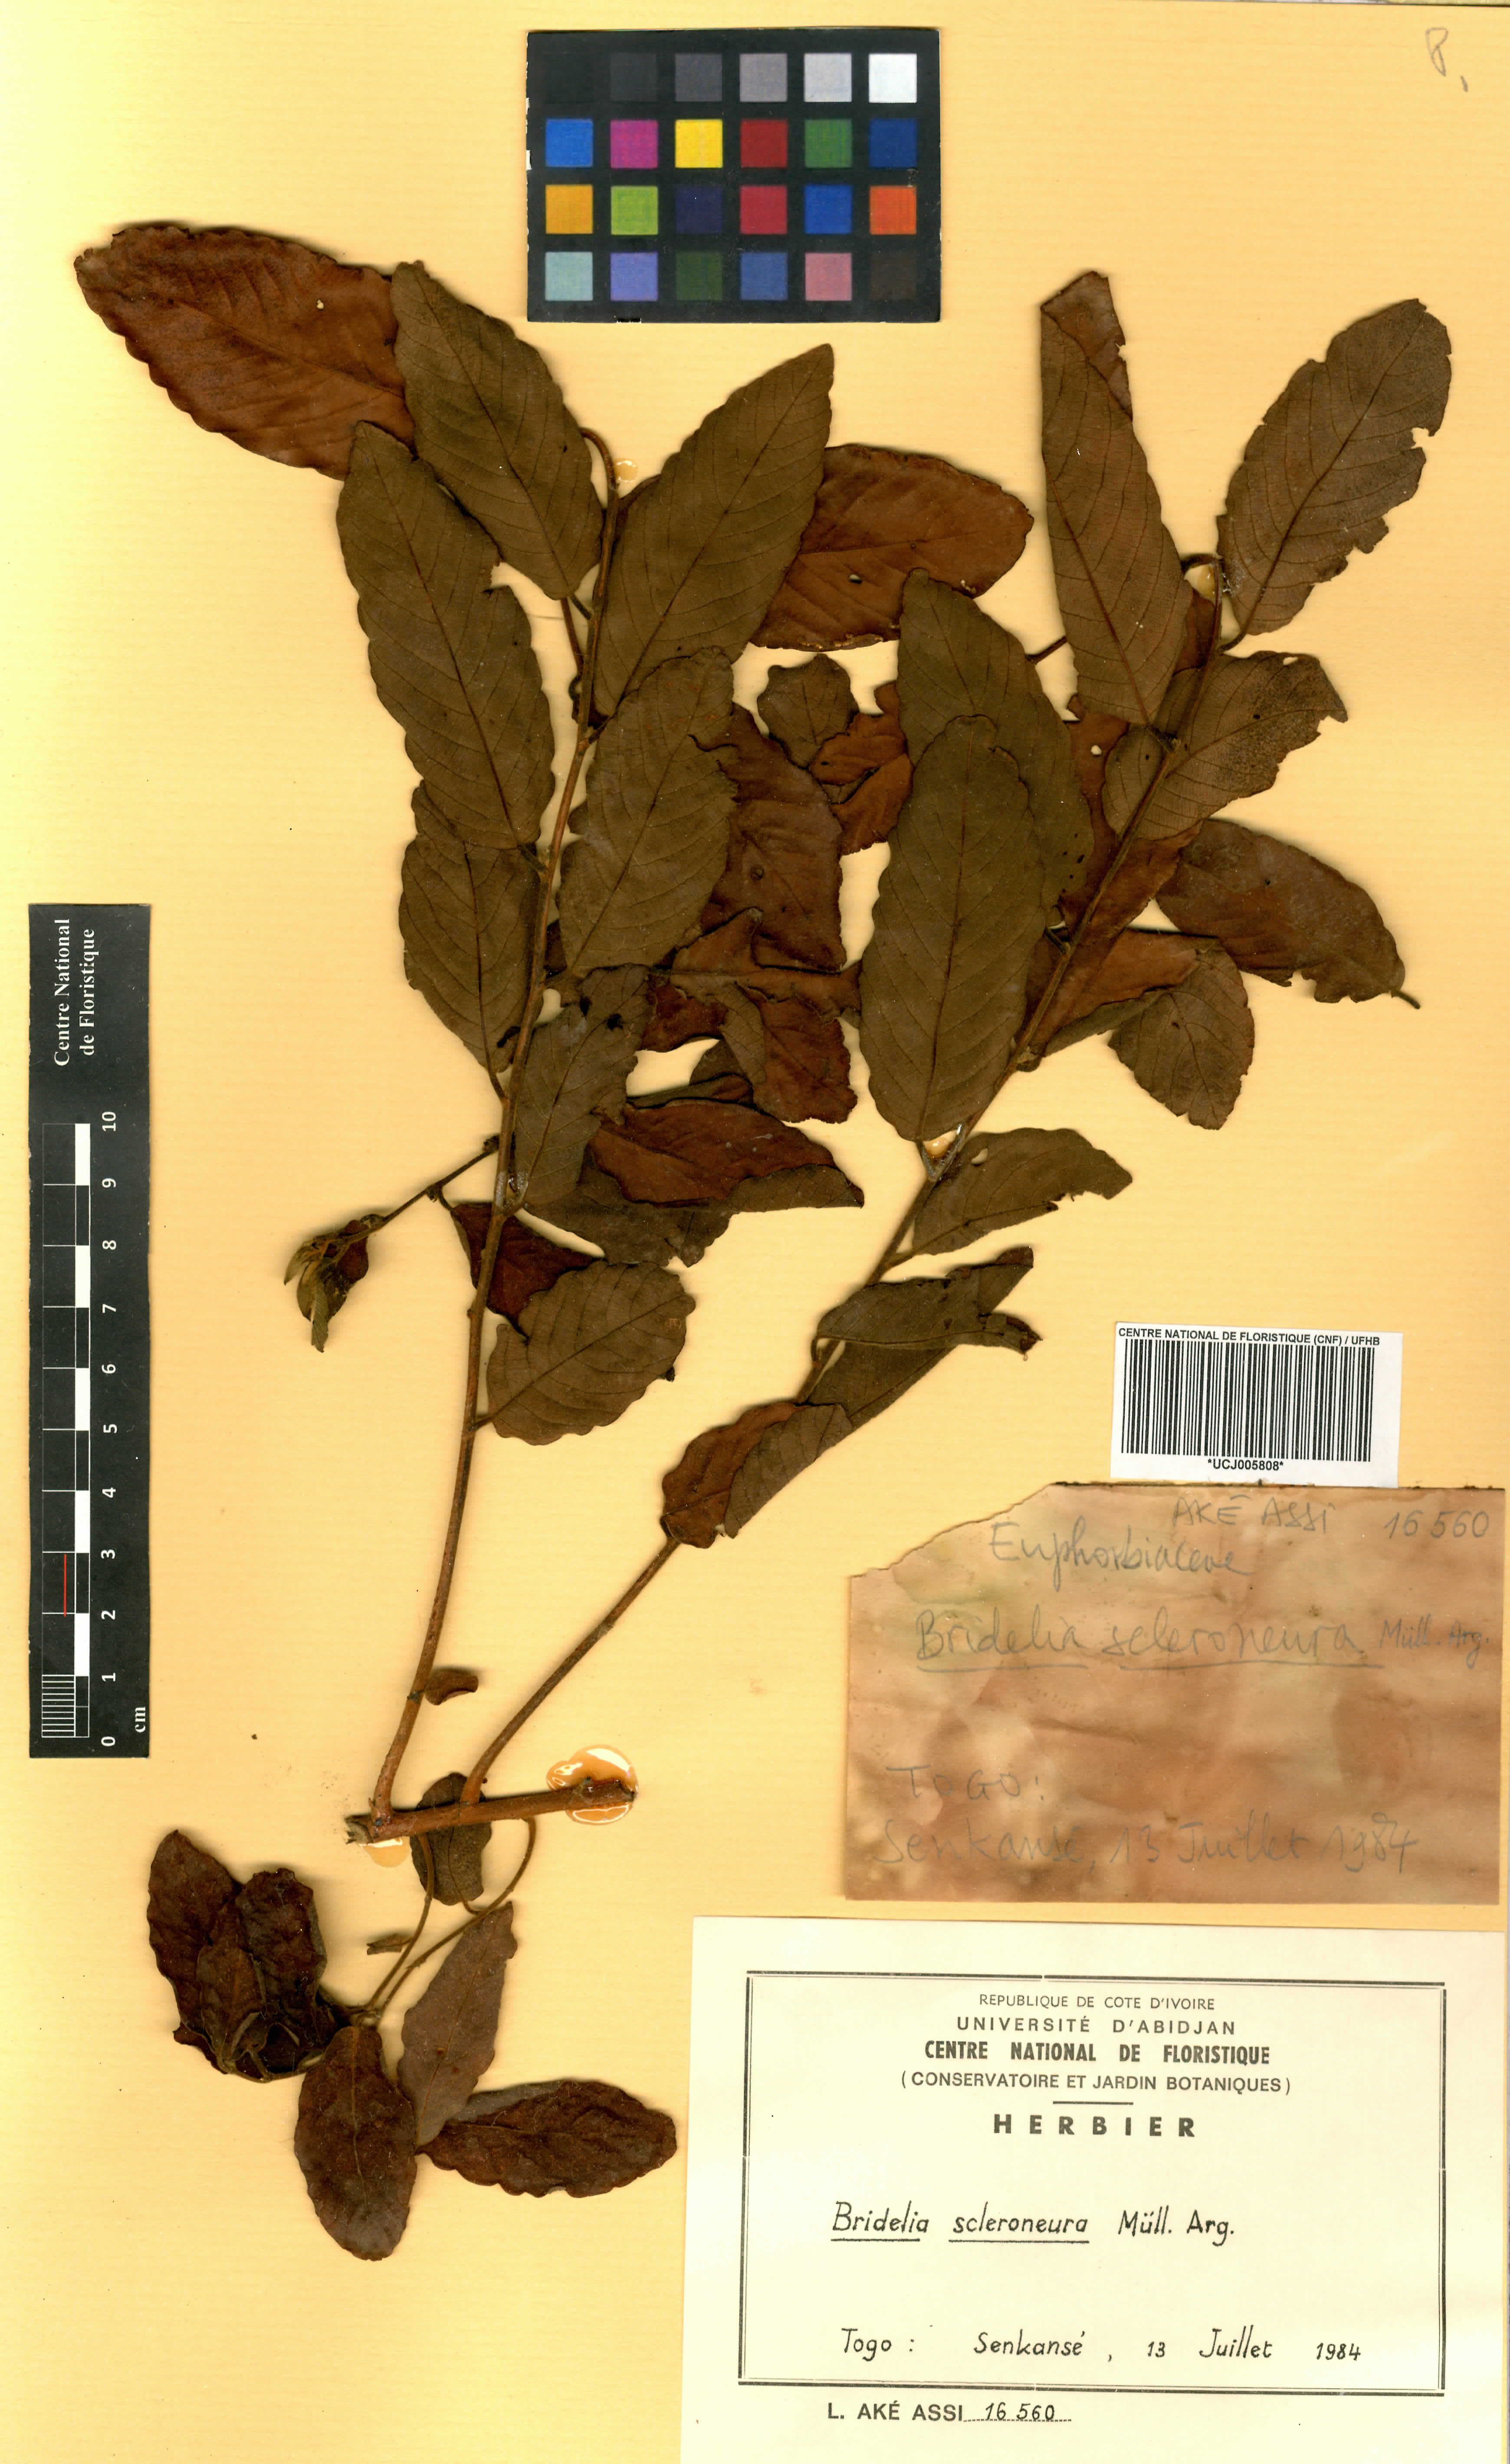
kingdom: Plantae
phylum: Tracheophyta
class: Magnoliopsida
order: Malpighiales
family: Phyllanthaceae
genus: Bridelia
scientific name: Bridelia scleroneura
